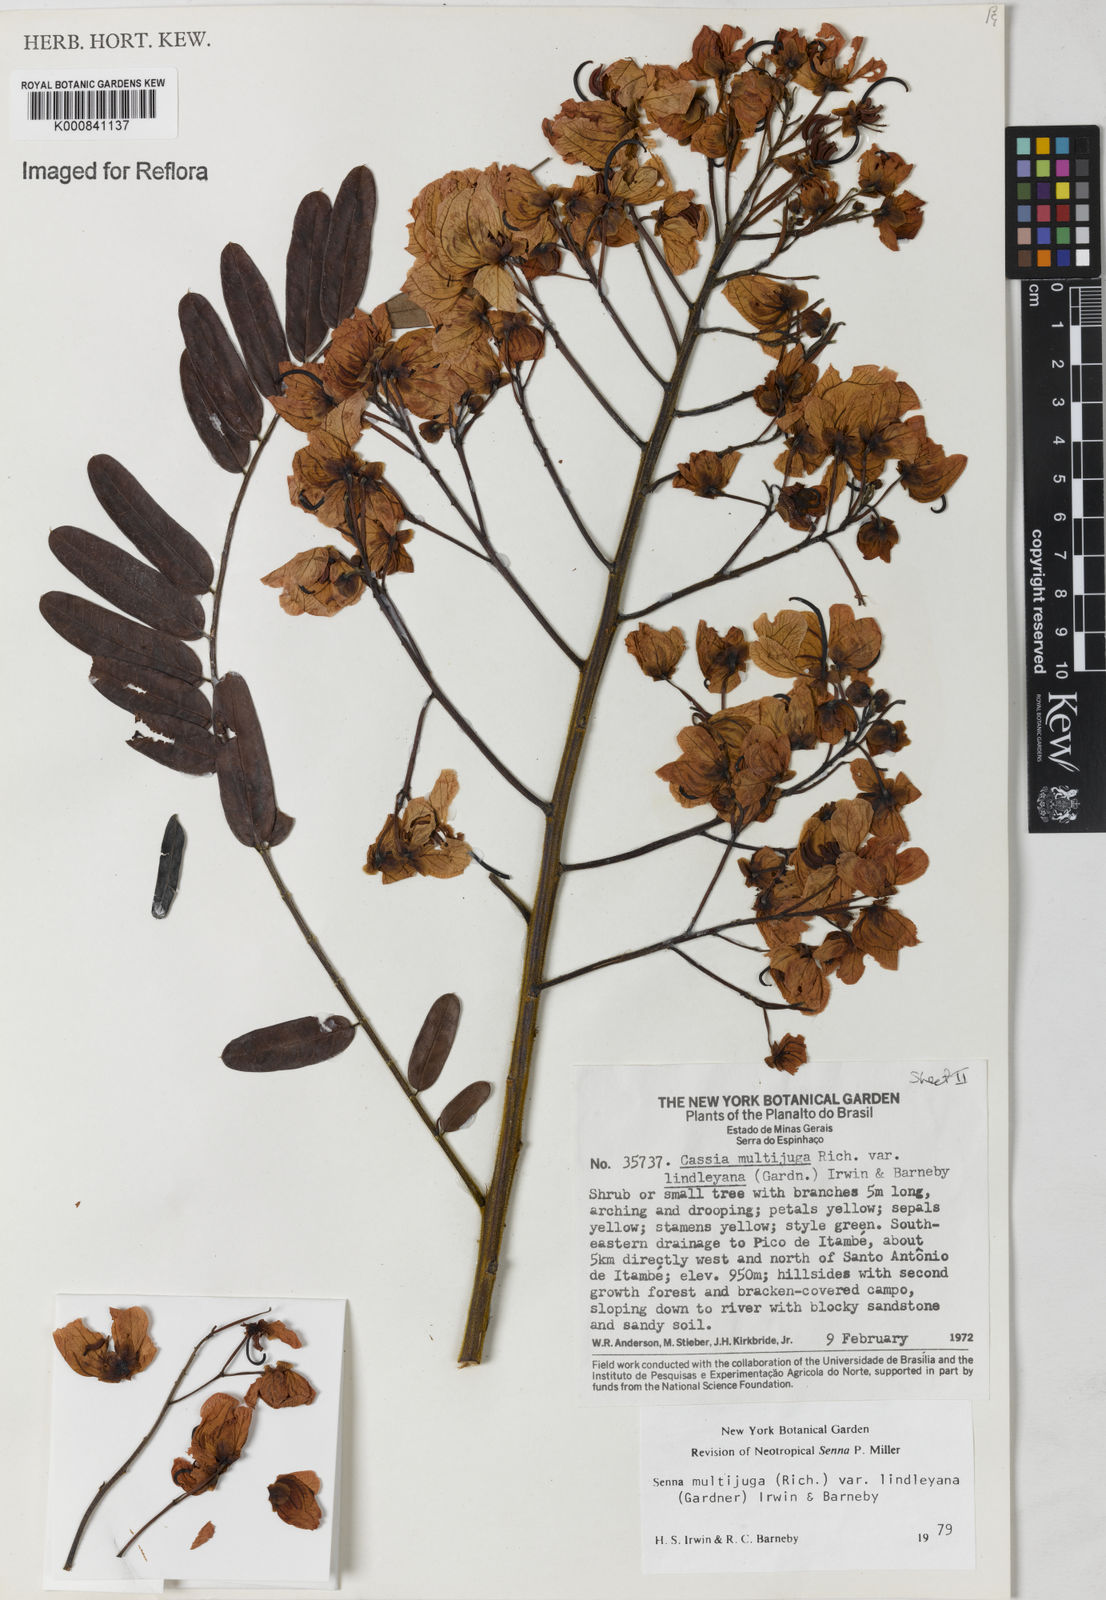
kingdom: Plantae
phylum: Tracheophyta
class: Magnoliopsida
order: Fabales
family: Fabaceae
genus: Senna
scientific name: Senna multijuga
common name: False sicklepod
